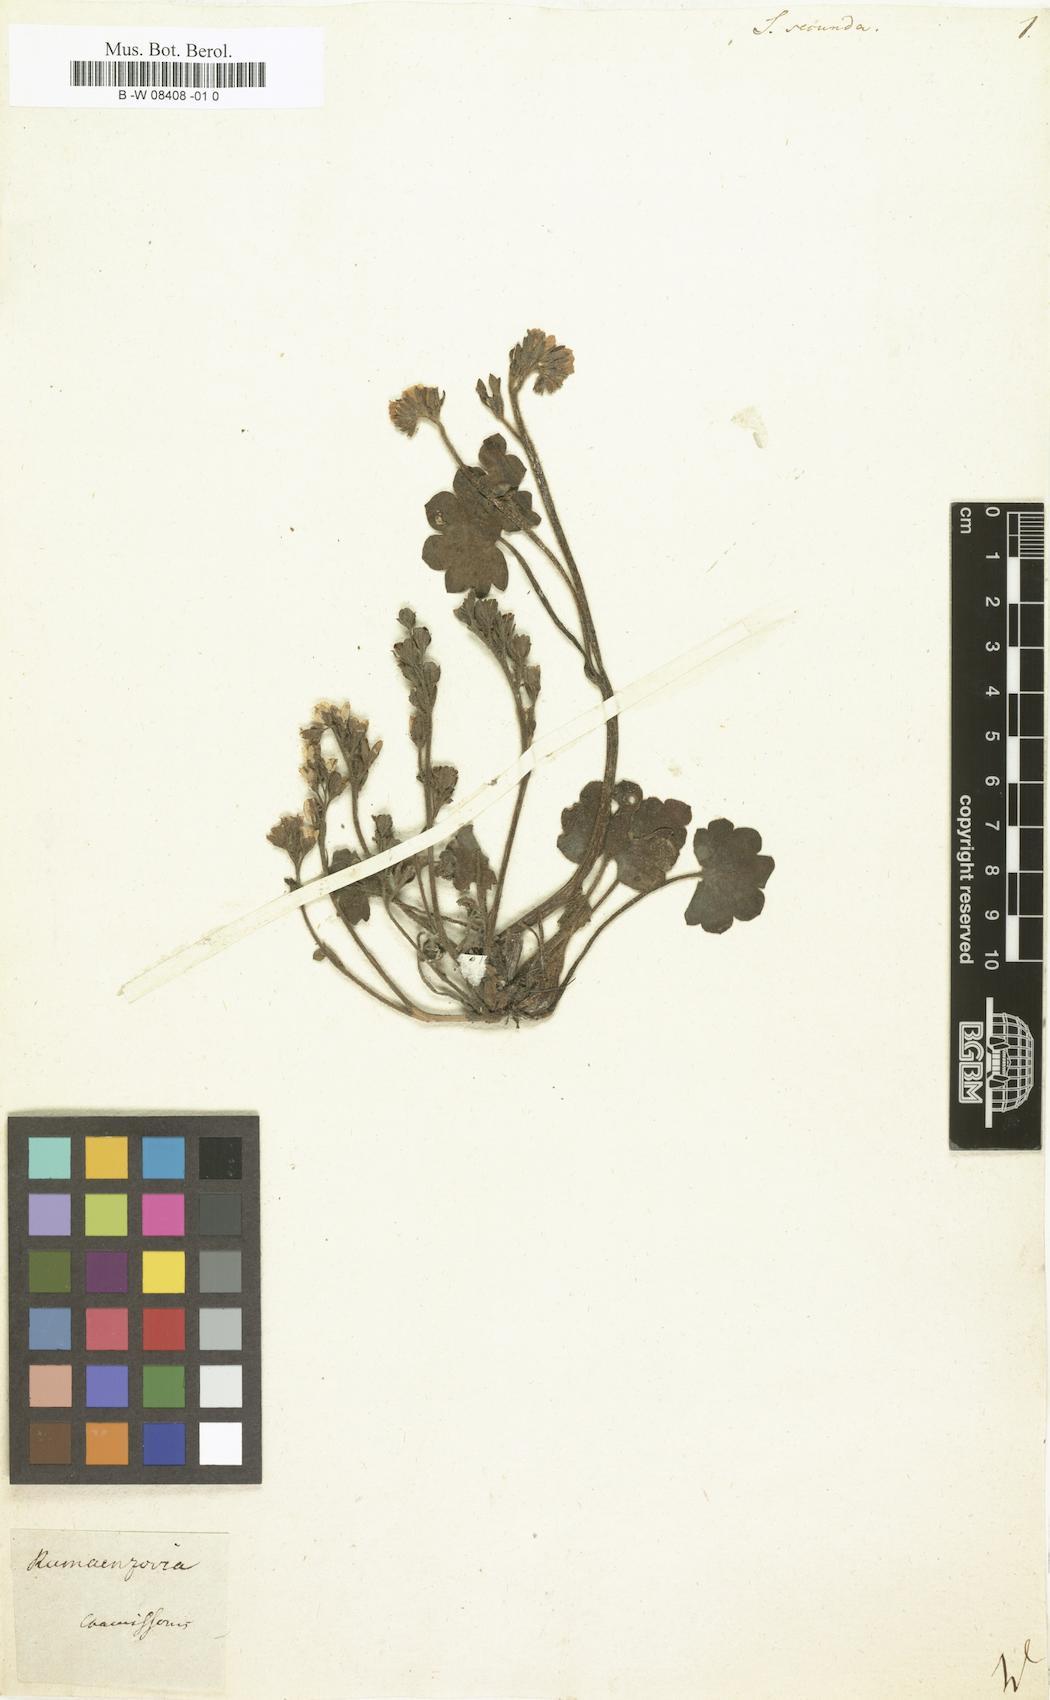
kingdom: Plantae
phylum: Tracheophyta
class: Magnoliopsida
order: Saxifragales
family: Saxifragaceae
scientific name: Saxifragaceae
